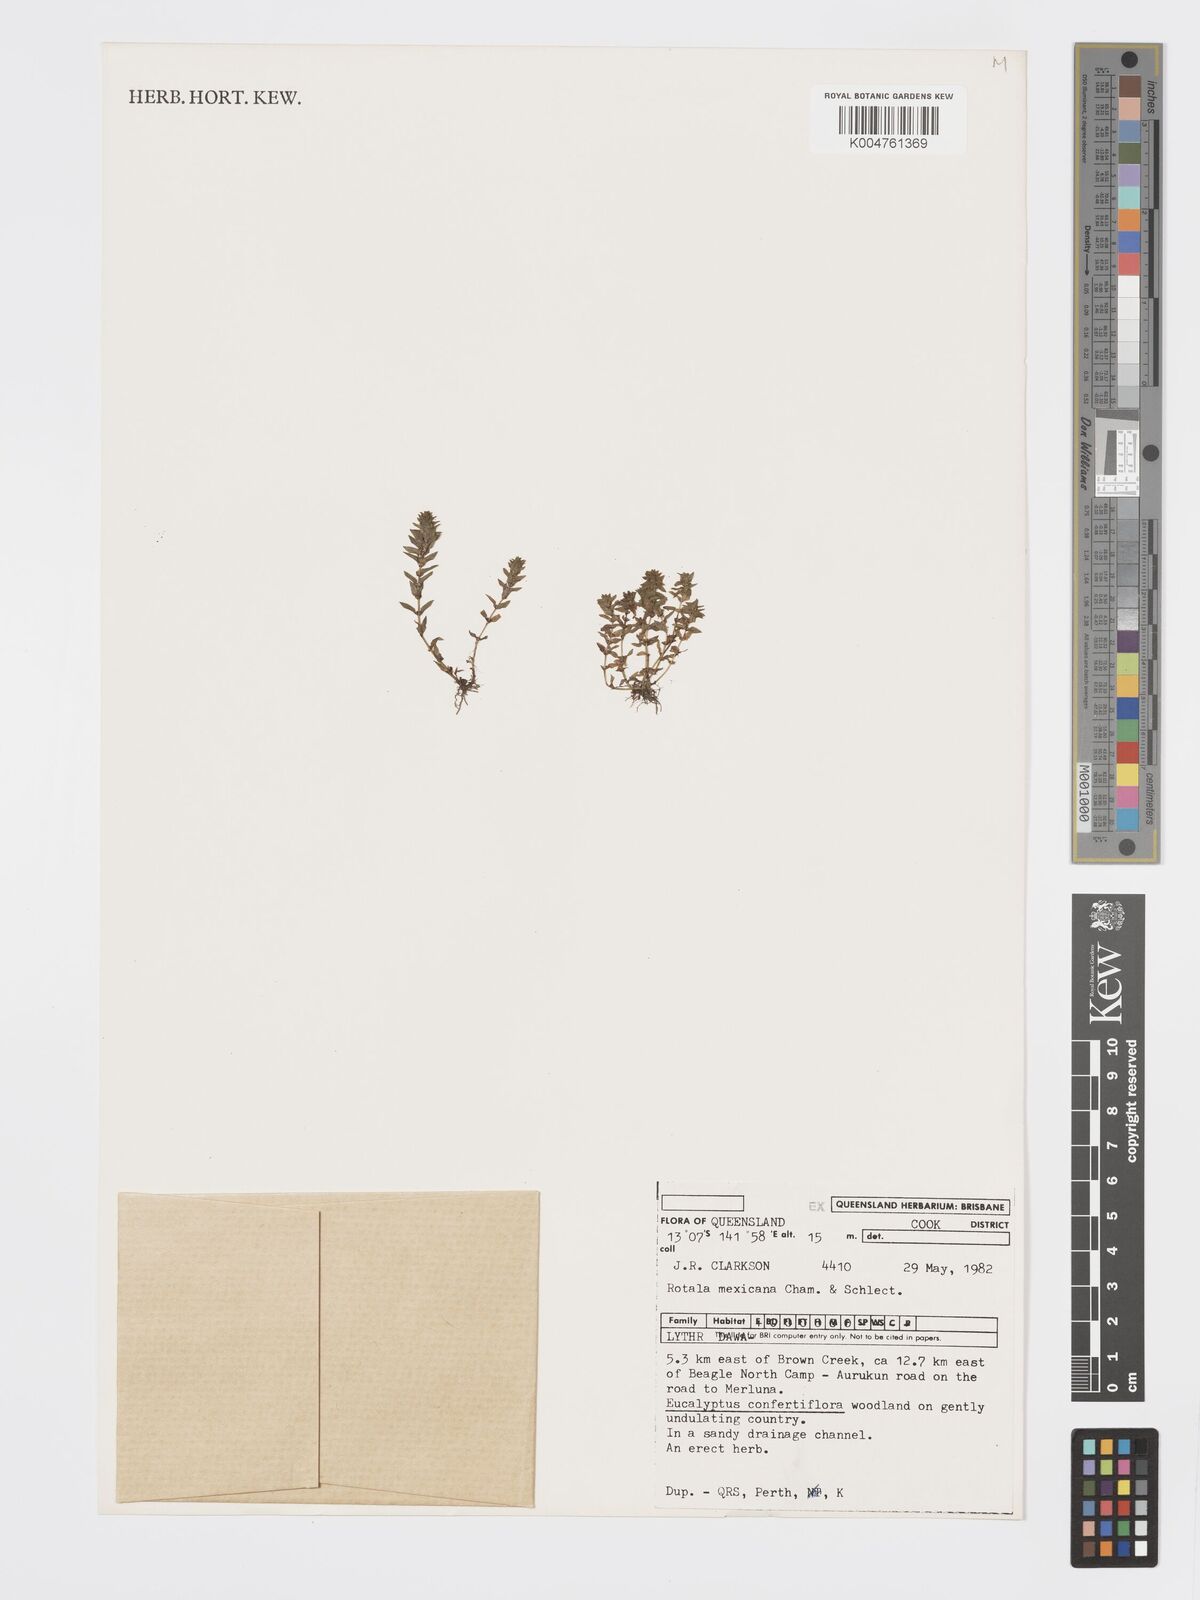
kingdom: Plantae
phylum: Tracheophyta
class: Magnoliopsida
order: Myrtales
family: Lythraceae
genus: Rotala
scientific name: Rotala mexicana
